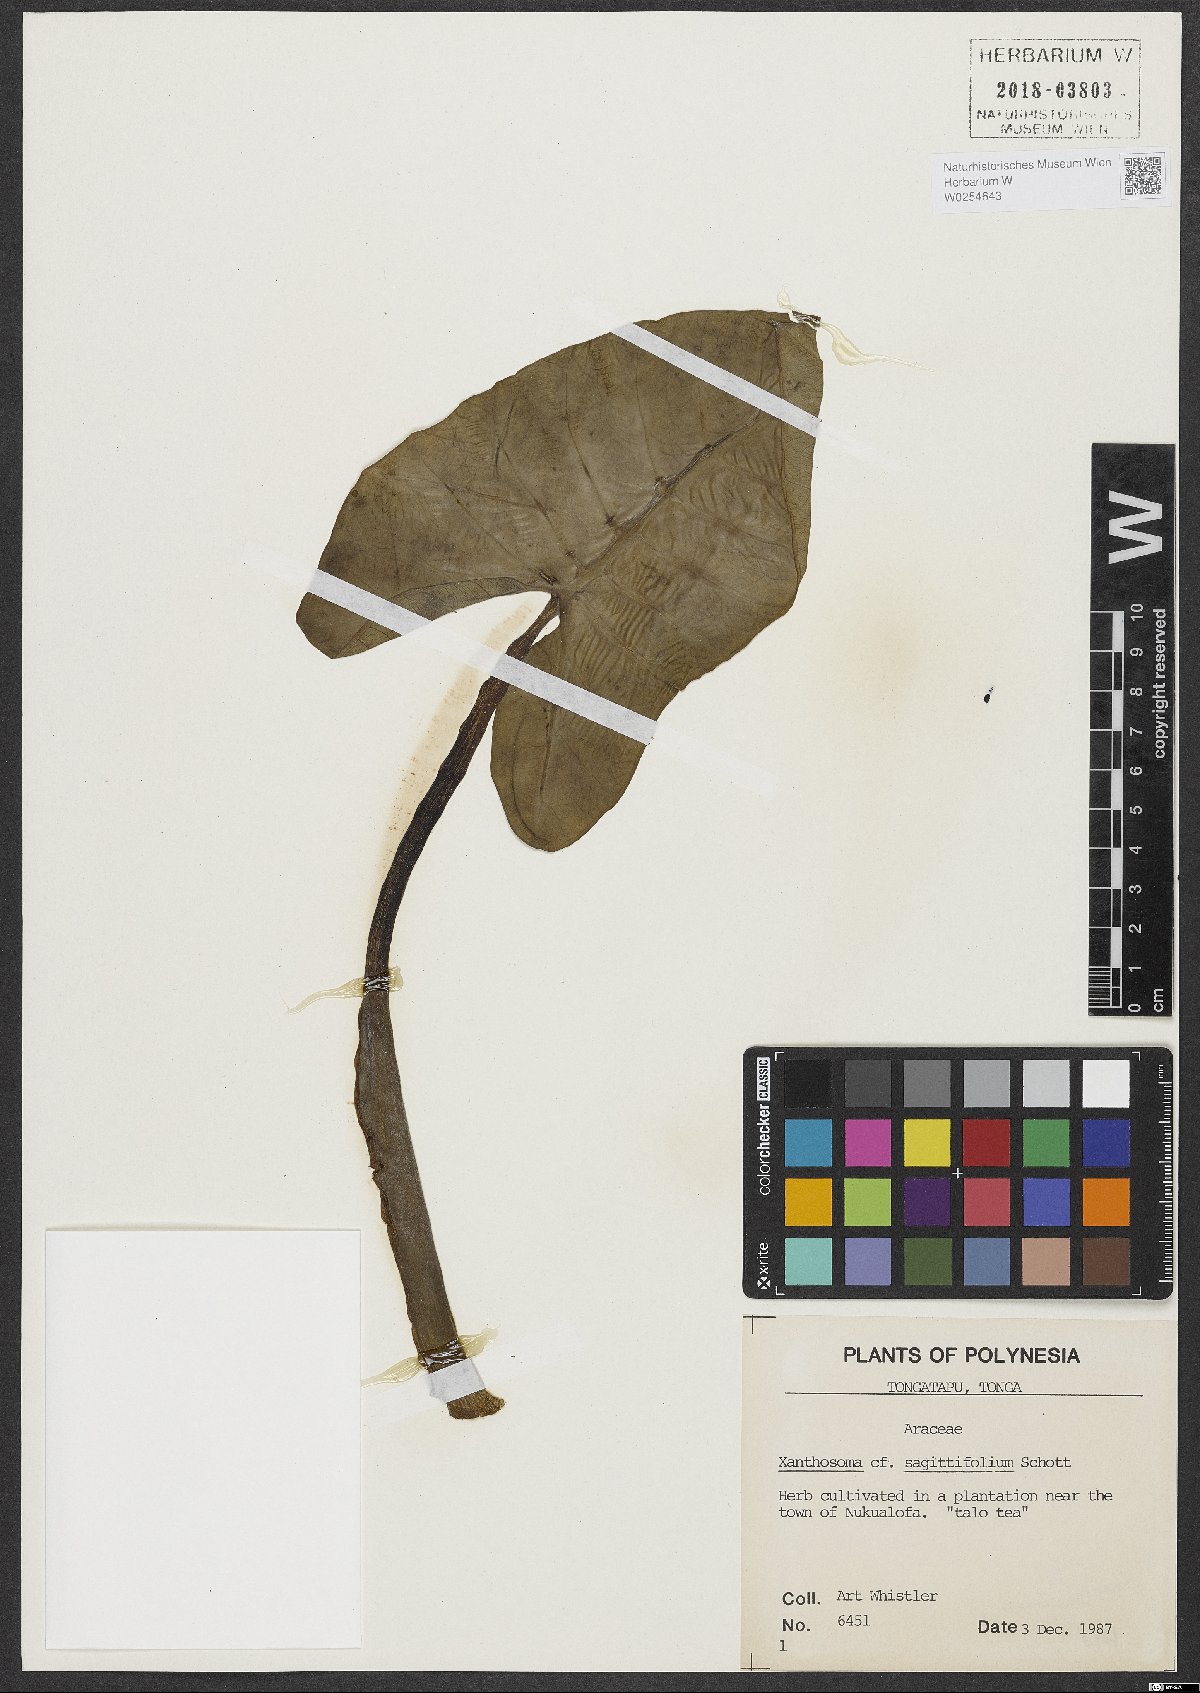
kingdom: Plantae
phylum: Tracheophyta
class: Liliopsida
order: Alismatales
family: Araceae
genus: Xanthosoma
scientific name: Xanthosoma sagittifolium
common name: Arrowleaf elephant's ear
